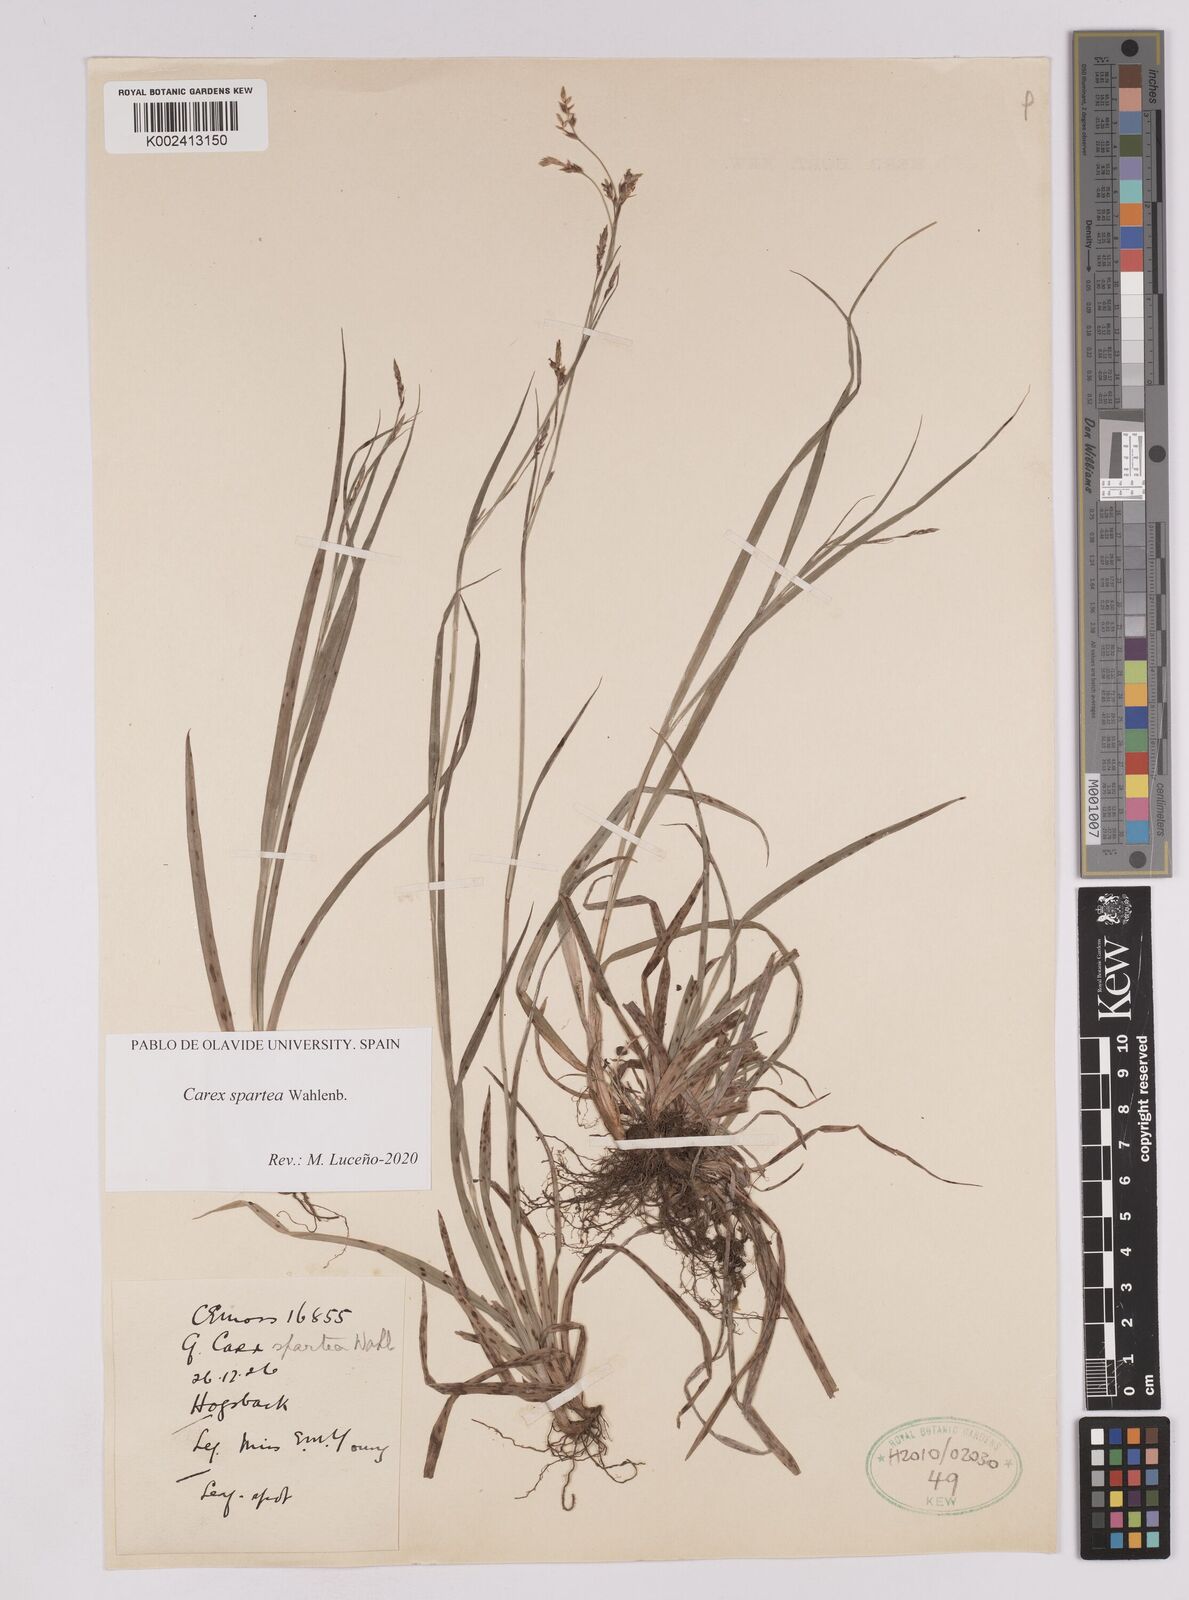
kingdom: Plantae
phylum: Tracheophyta
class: Liliopsida
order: Poales
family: Cyperaceae
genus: Carex
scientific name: Carex spartea
